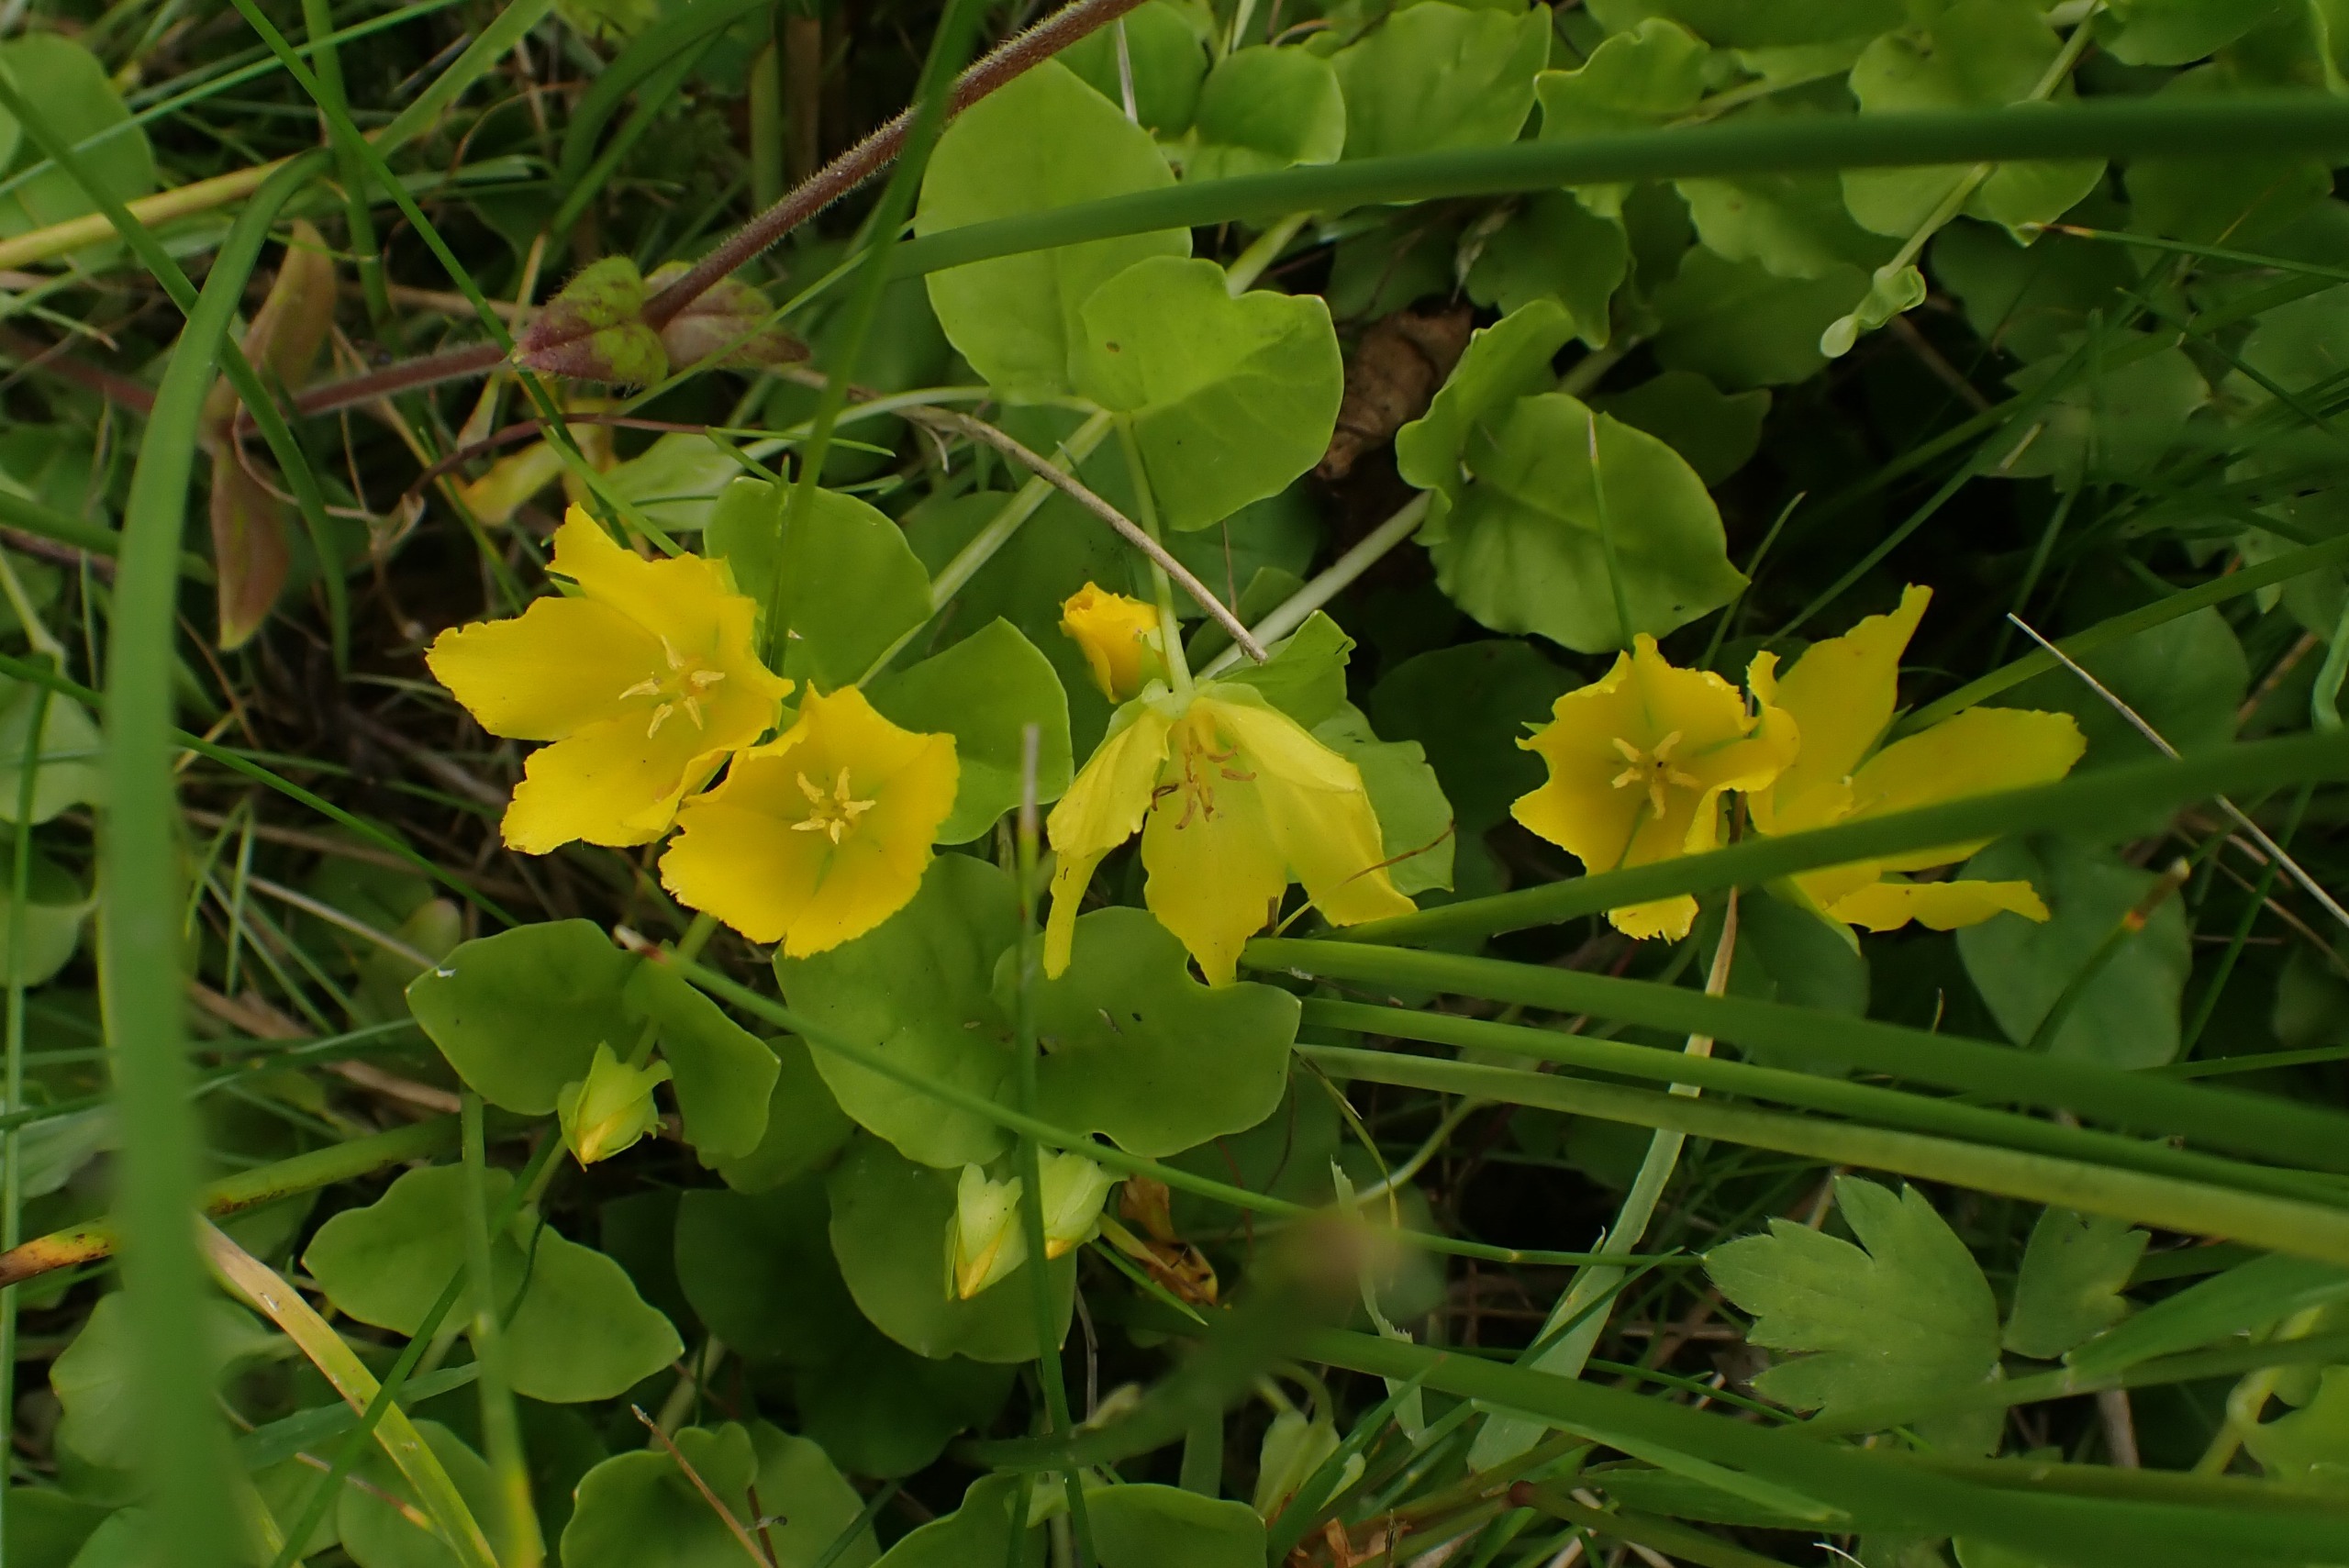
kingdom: Plantae
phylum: Tracheophyta
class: Magnoliopsida
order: Ericales
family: Primulaceae
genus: Lysimachia
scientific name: Lysimachia nummularia
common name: Pengebladet fredløs
